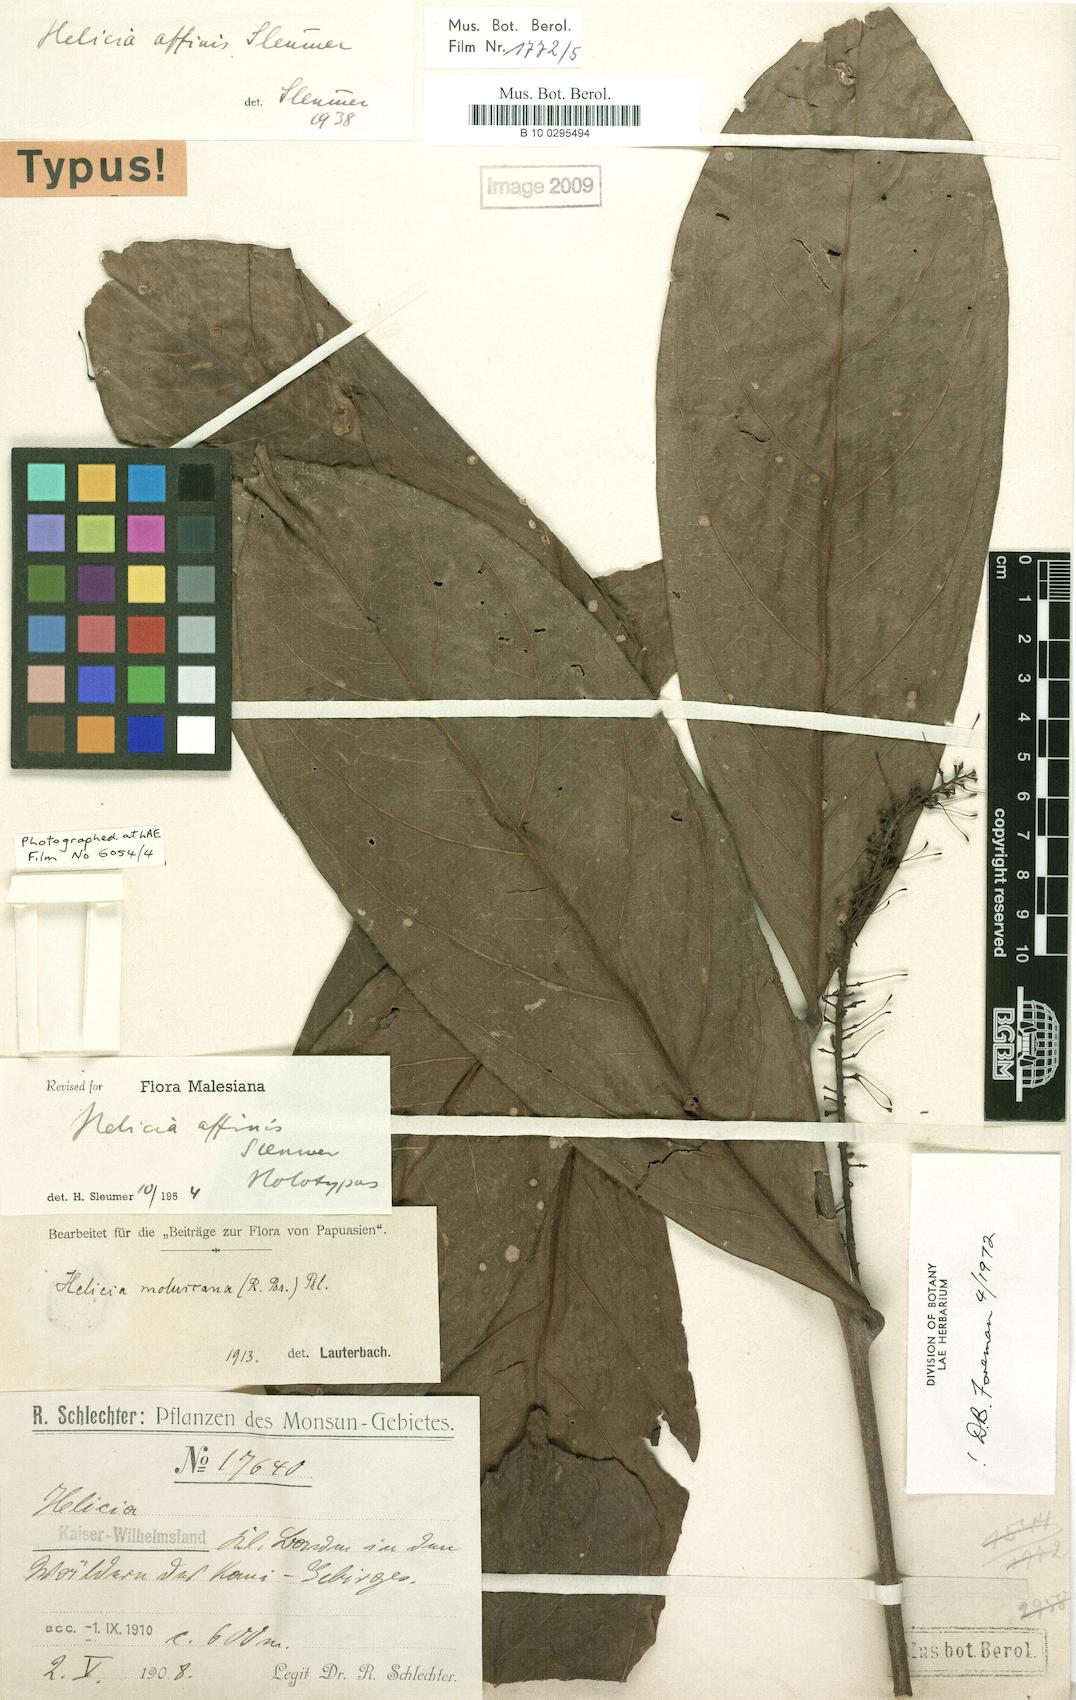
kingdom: Plantae
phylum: Tracheophyta
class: Magnoliopsida
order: Proteales
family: Proteaceae
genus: Helicia
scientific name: Helicia moluccana
